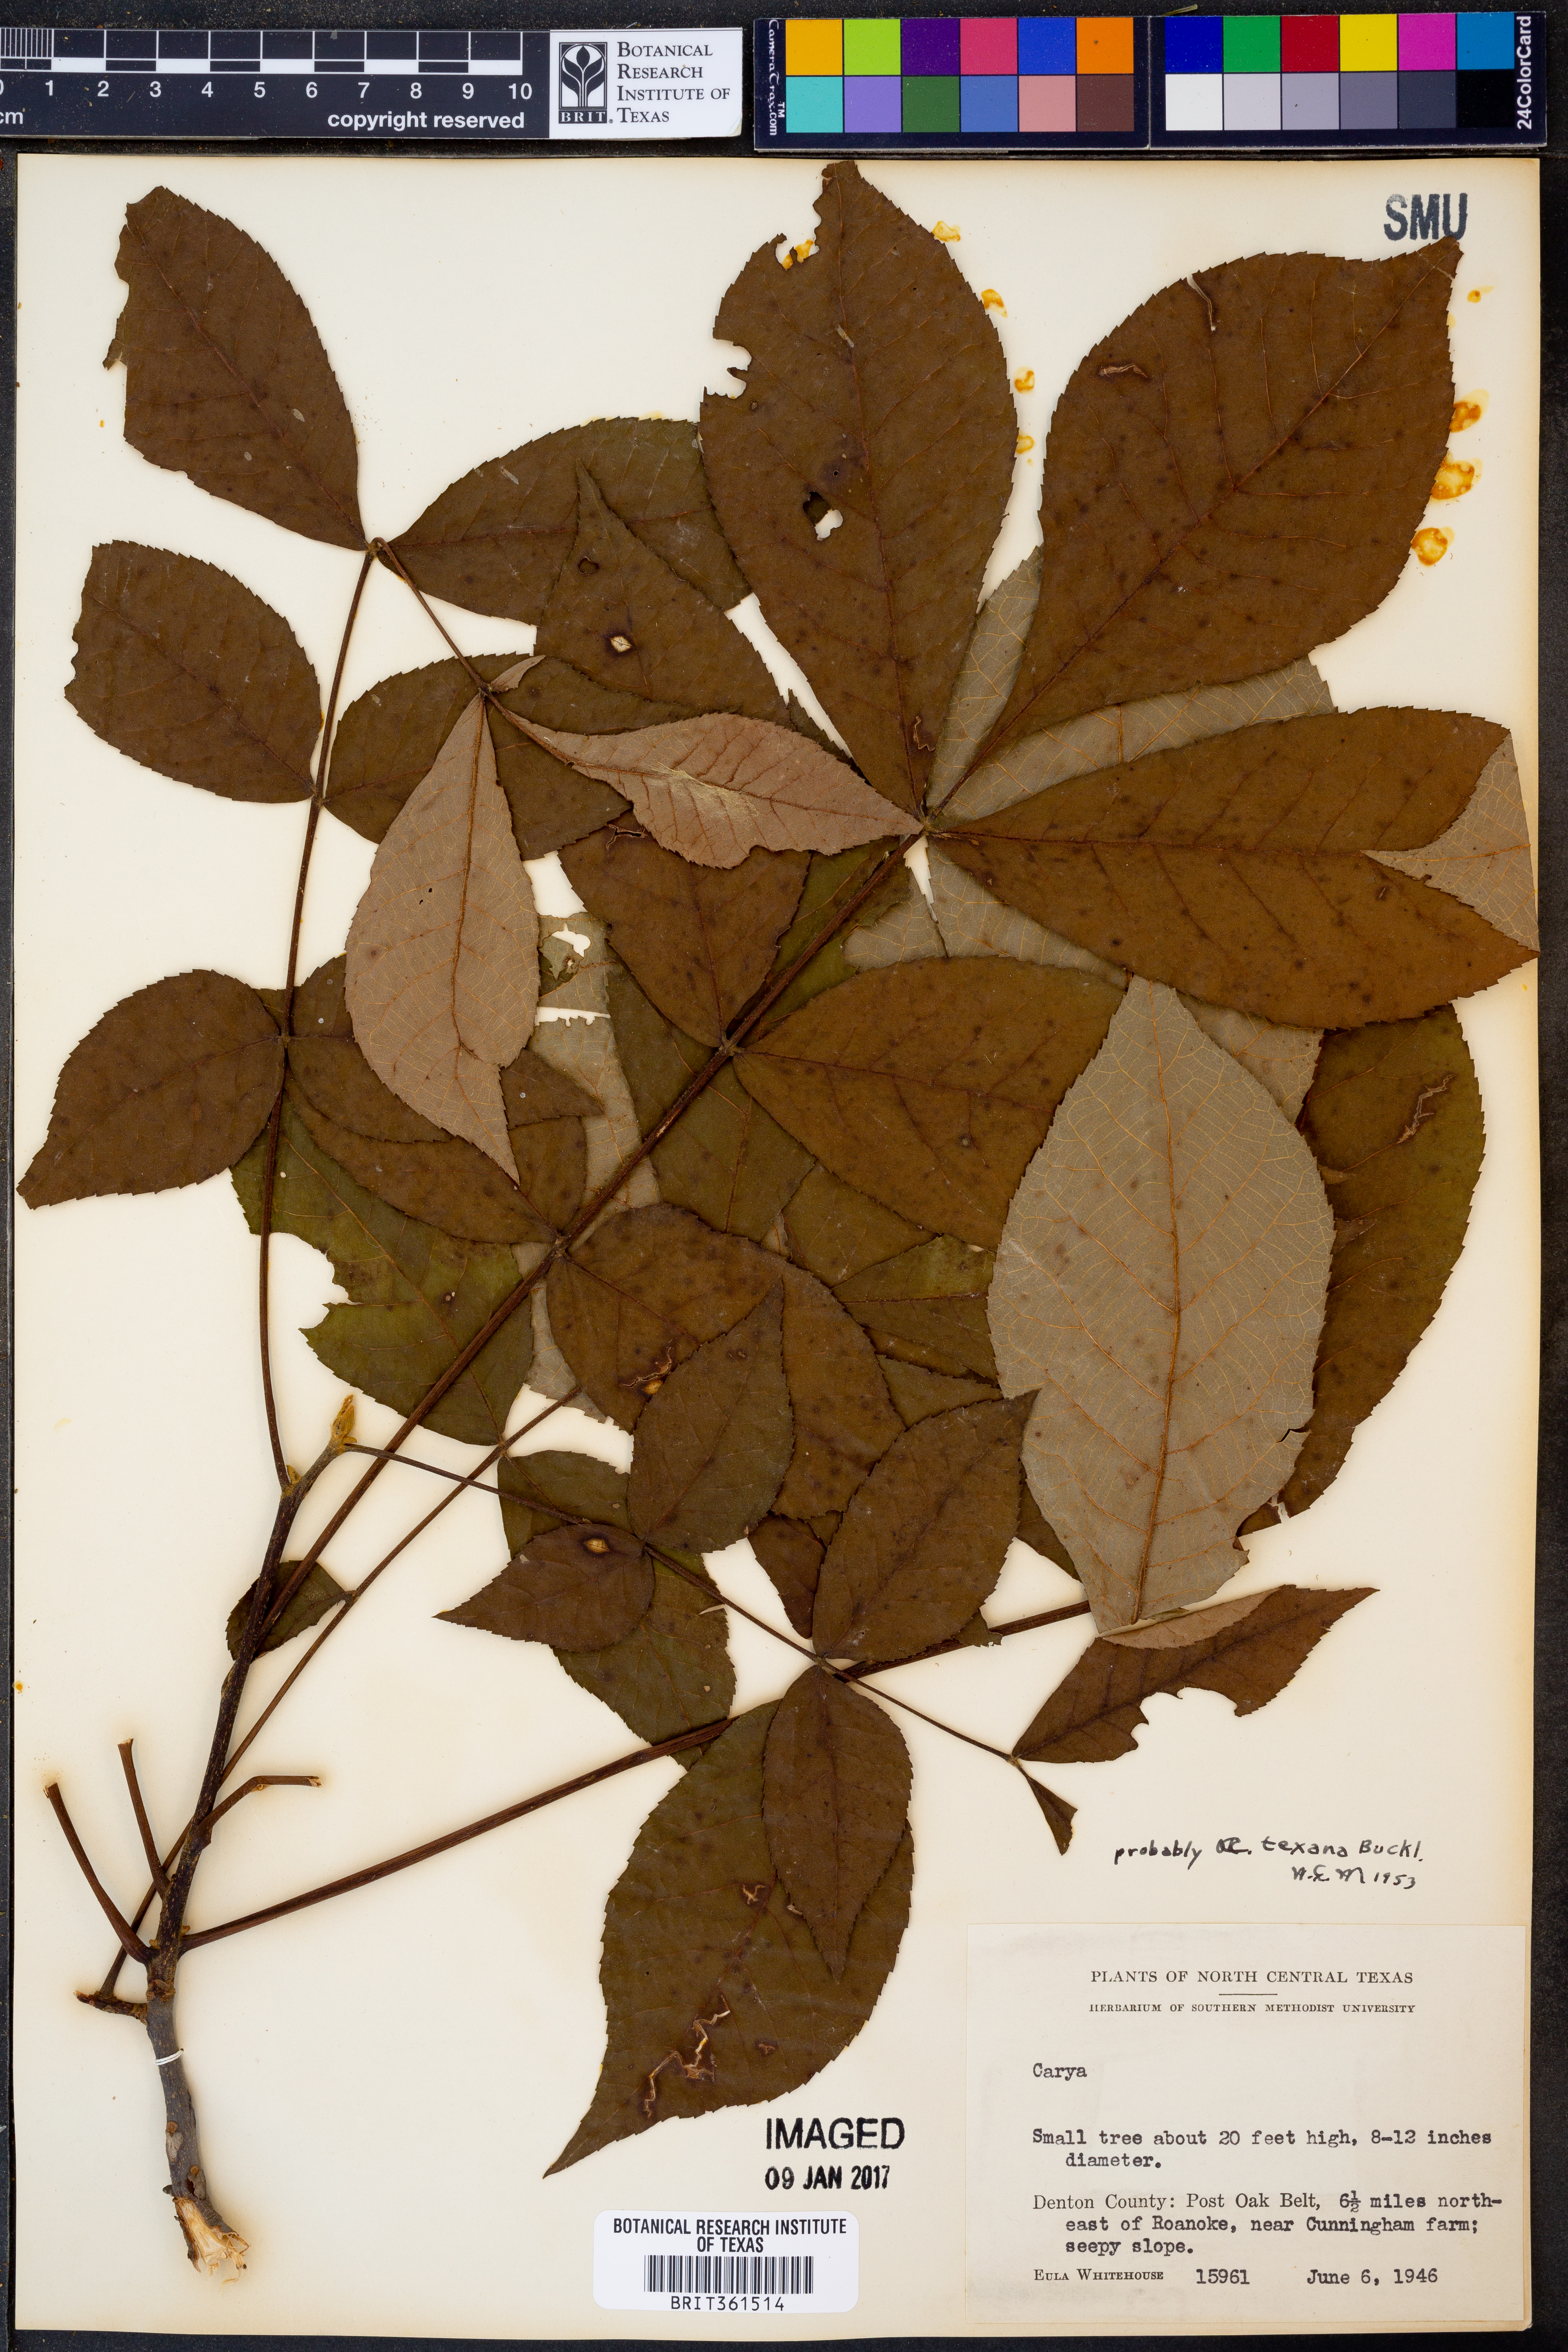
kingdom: Plantae
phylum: Tracheophyta
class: Magnoliopsida
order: Fagales
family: Juglandaceae
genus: Carya
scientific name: Carya texana
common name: Black hickory
